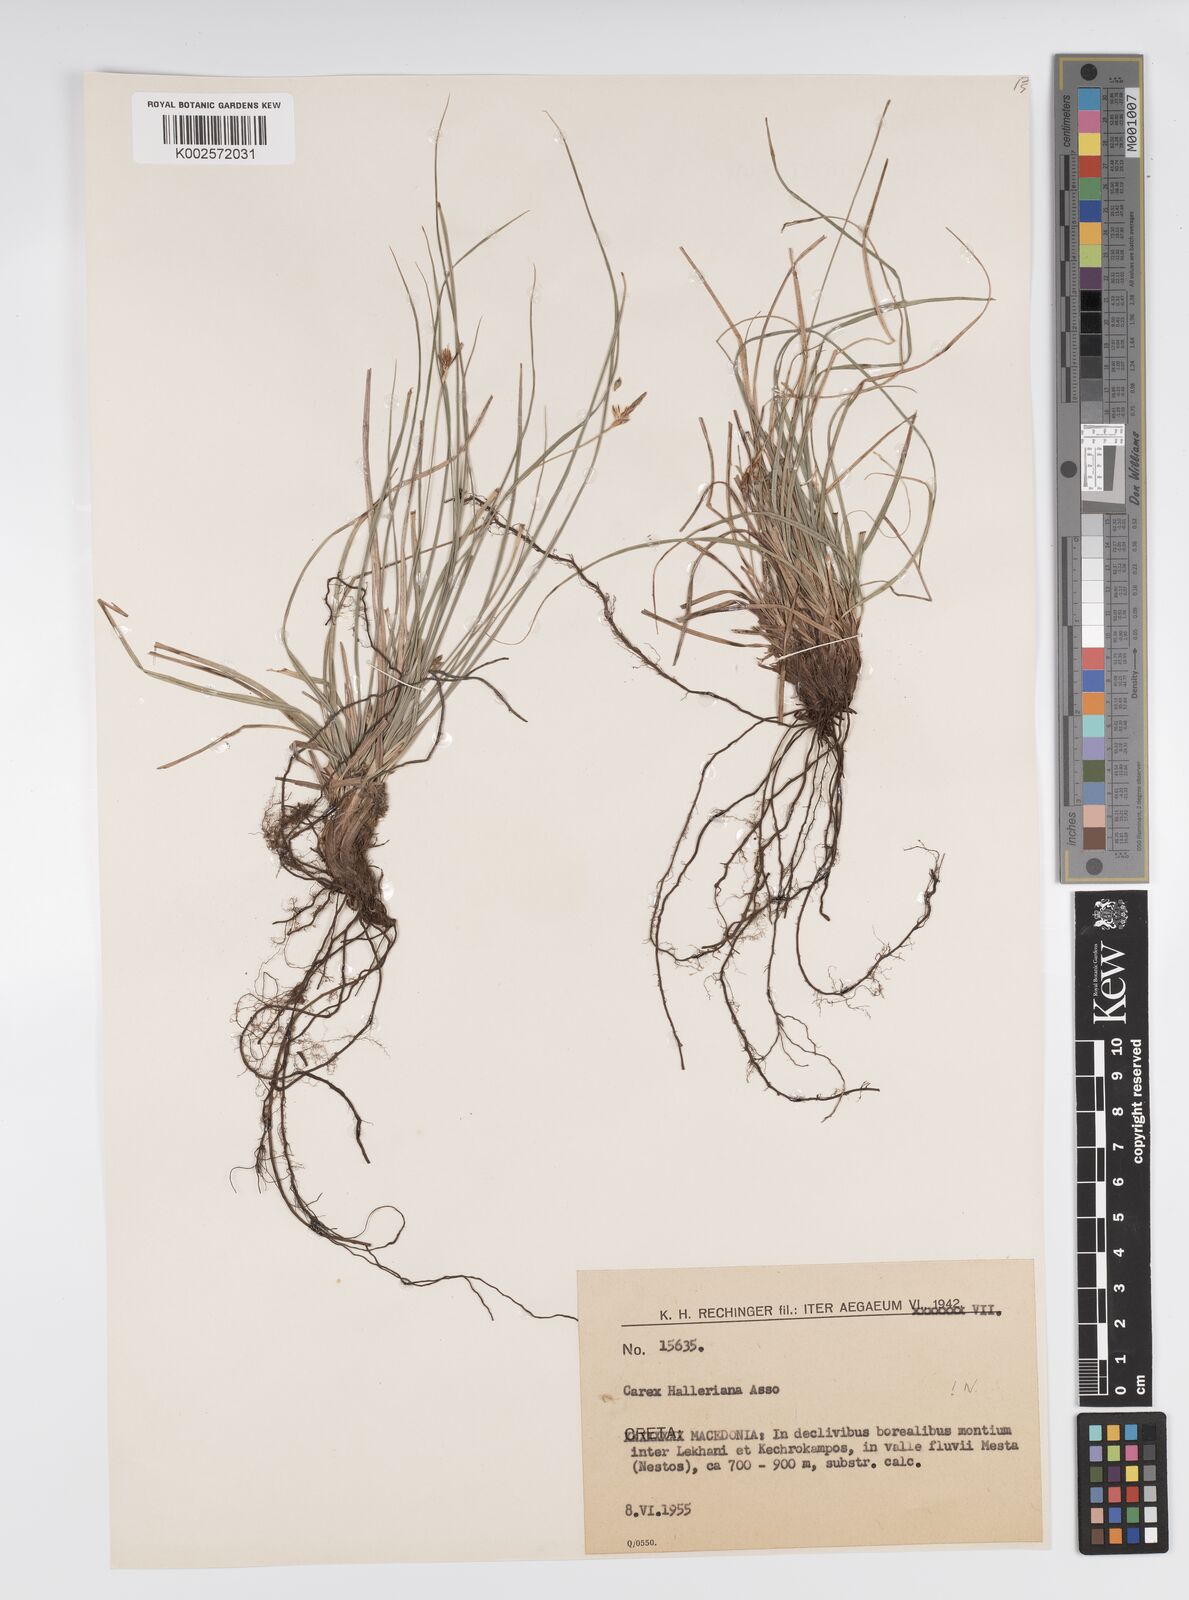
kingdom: Plantae
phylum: Tracheophyta
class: Liliopsida
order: Poales
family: Cyperaceae
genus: Carex
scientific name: Carex halleriana
